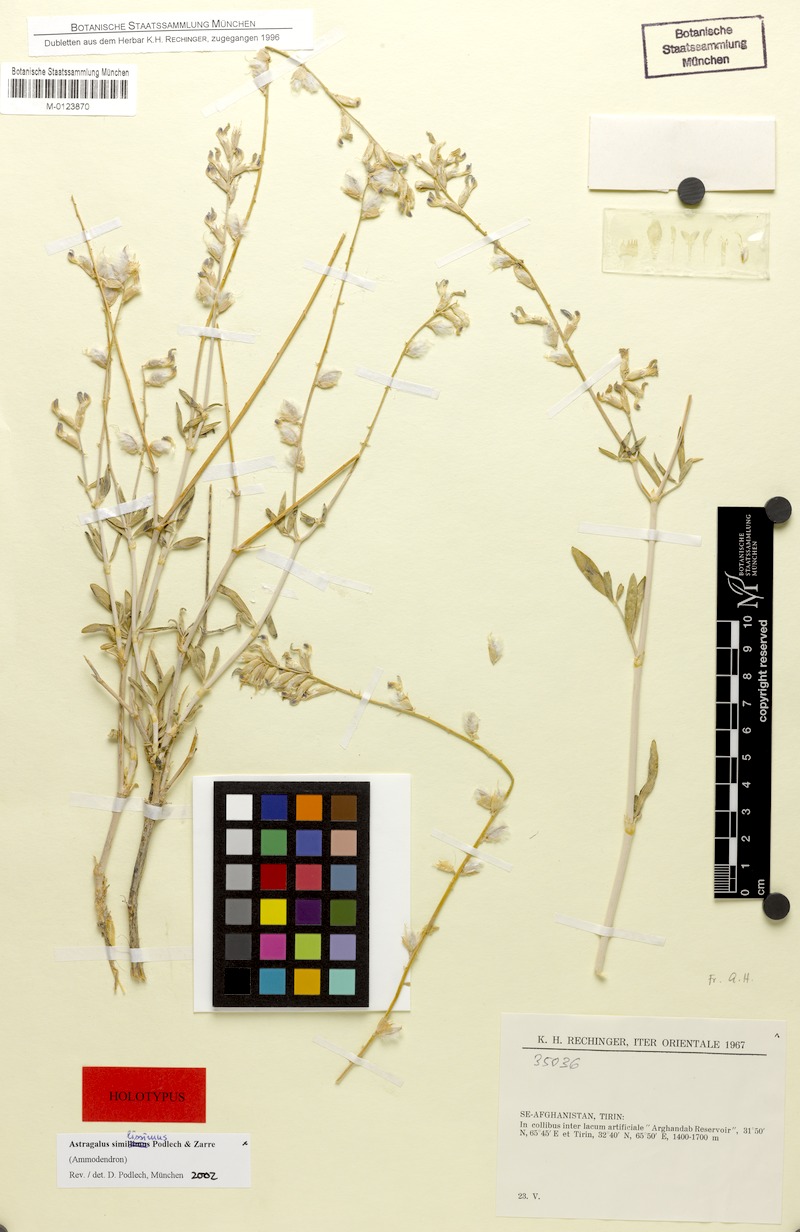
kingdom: Plantae
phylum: Tracheophyta
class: Magnoliopsida
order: Fabales
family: Fabaceae
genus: Astragalus
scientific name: Astragalus similissimus
